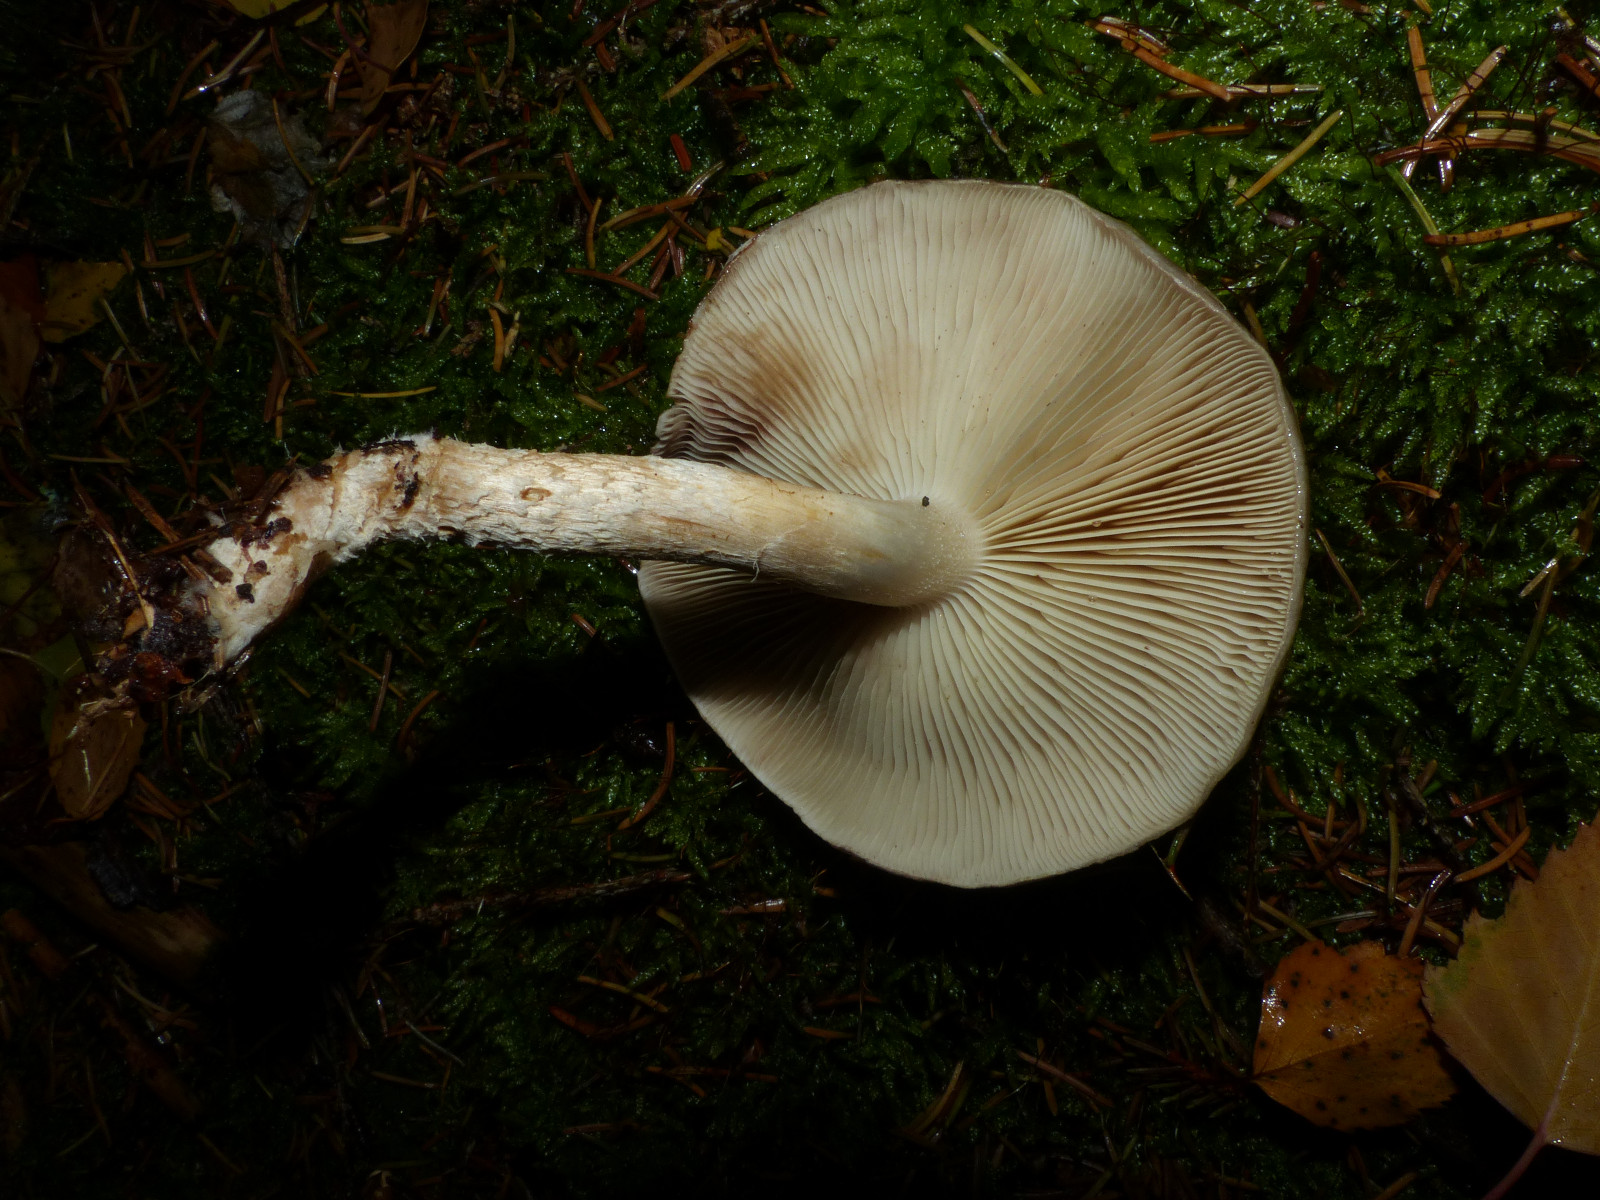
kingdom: Fungi
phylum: Basidiomycota
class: Agaricomycetes
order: Agaricales
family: Strophariaceae
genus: Pholiota
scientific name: Pholiota lenta
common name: løv-skælhat
